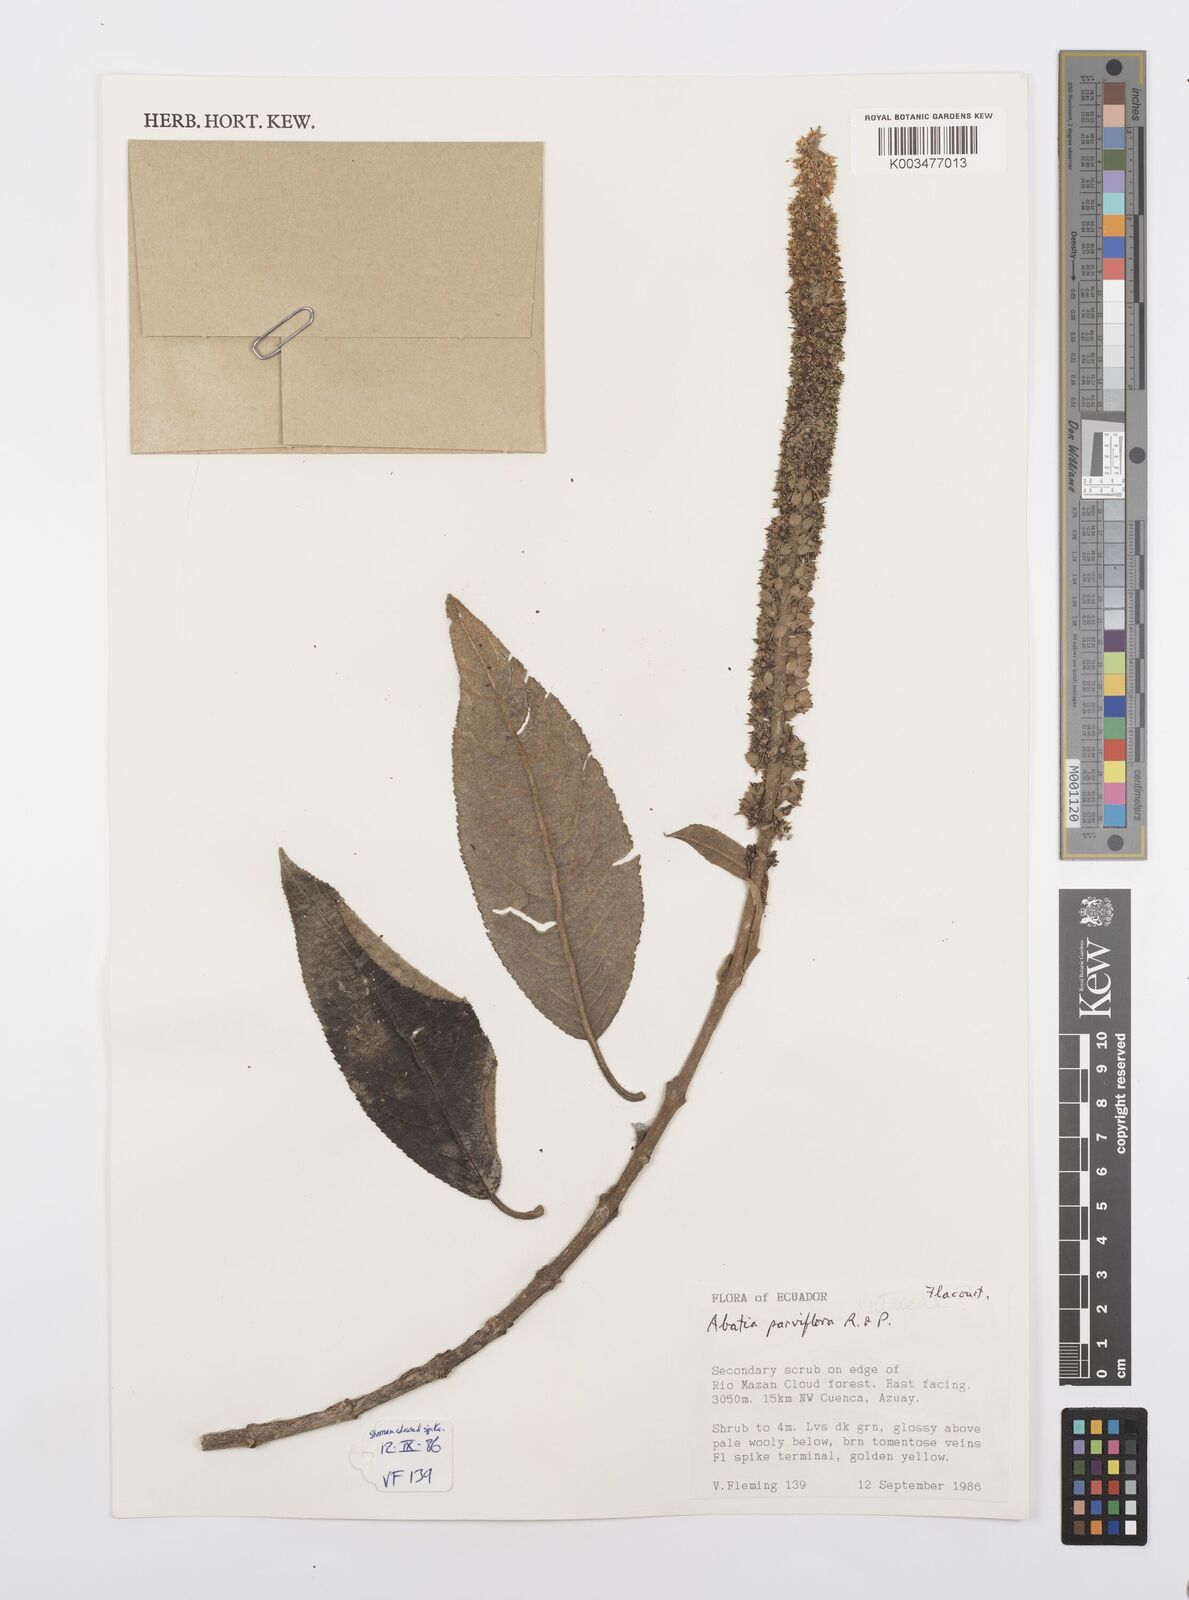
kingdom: Plantae
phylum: Tracheophyta
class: Magnoliopsida
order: Malpighiales
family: Salicaceae
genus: Abatia
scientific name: Abatia parviflora
